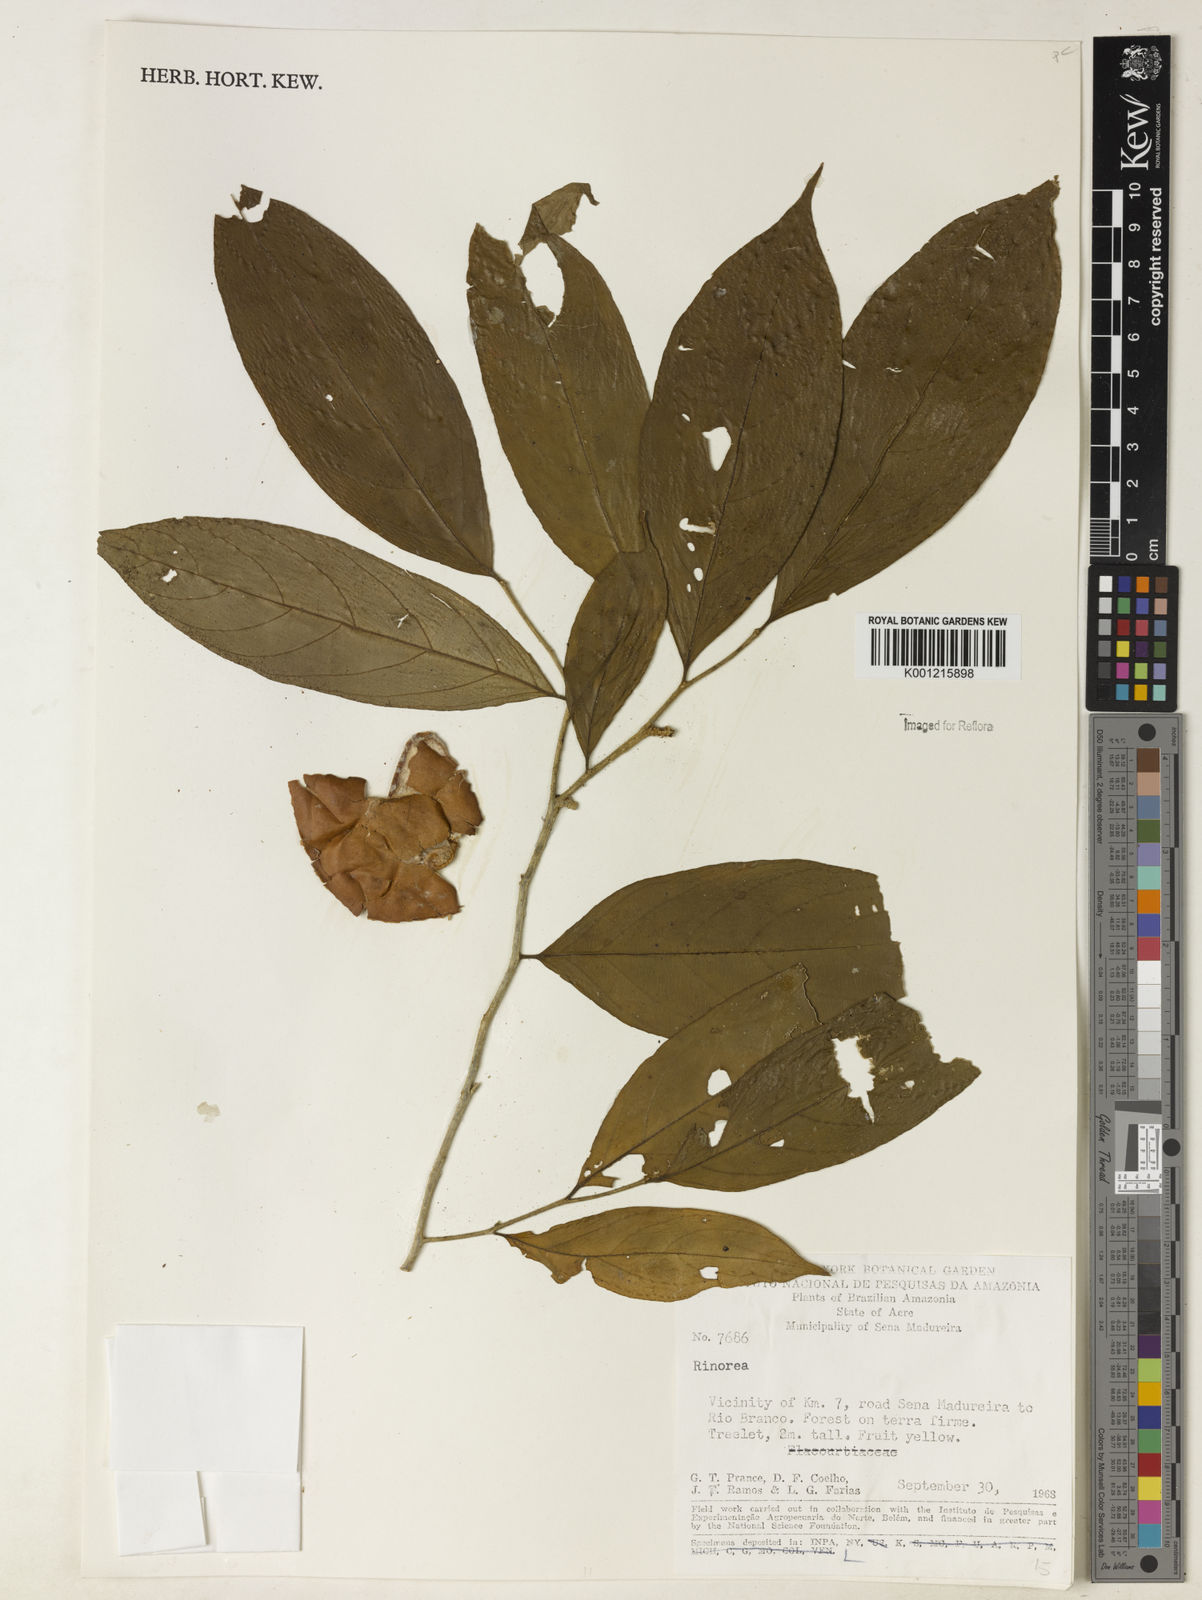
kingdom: Plantae
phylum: Tracheophyta
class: Magnoliopsida
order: Malpighiales
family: Violaceae
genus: Rinorea
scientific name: Rinorea
